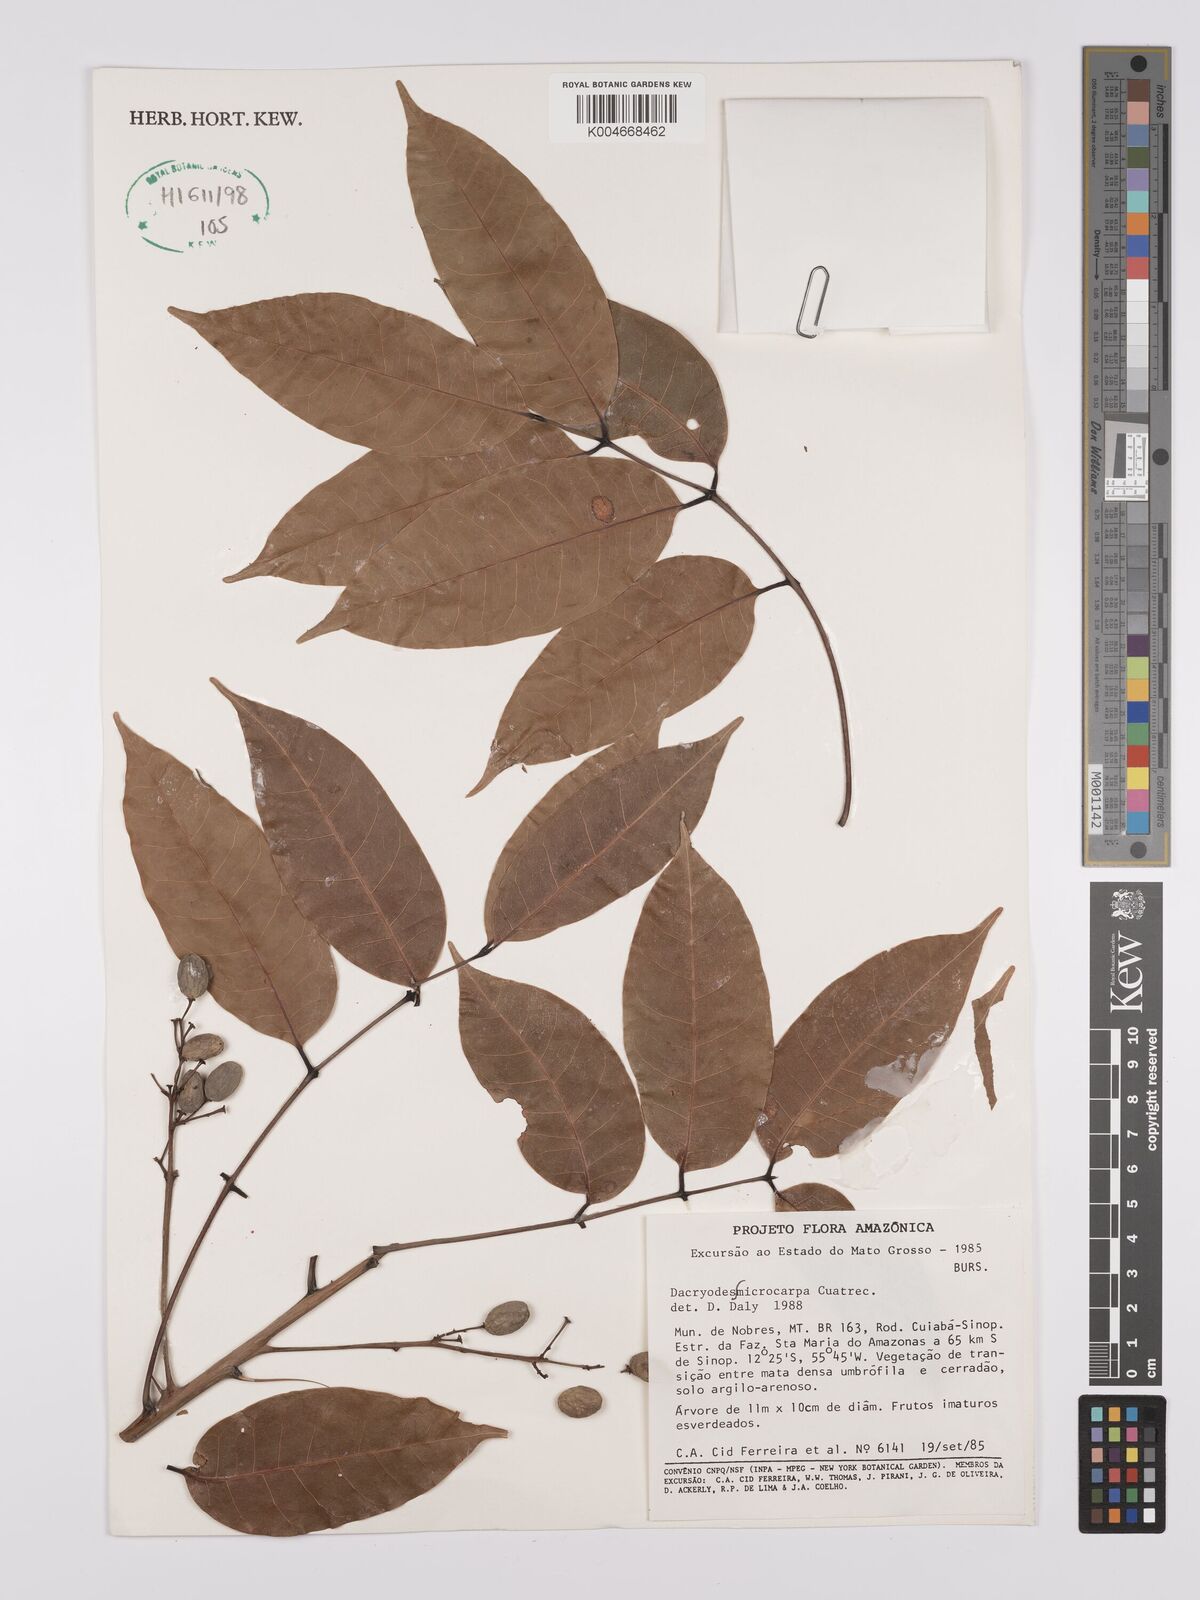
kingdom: Plantae
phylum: Tracheophyta
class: Magnoliopsida
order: Sapindales
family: Burseraceae
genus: Dacryodes
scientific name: Dacryodes microcarpa
